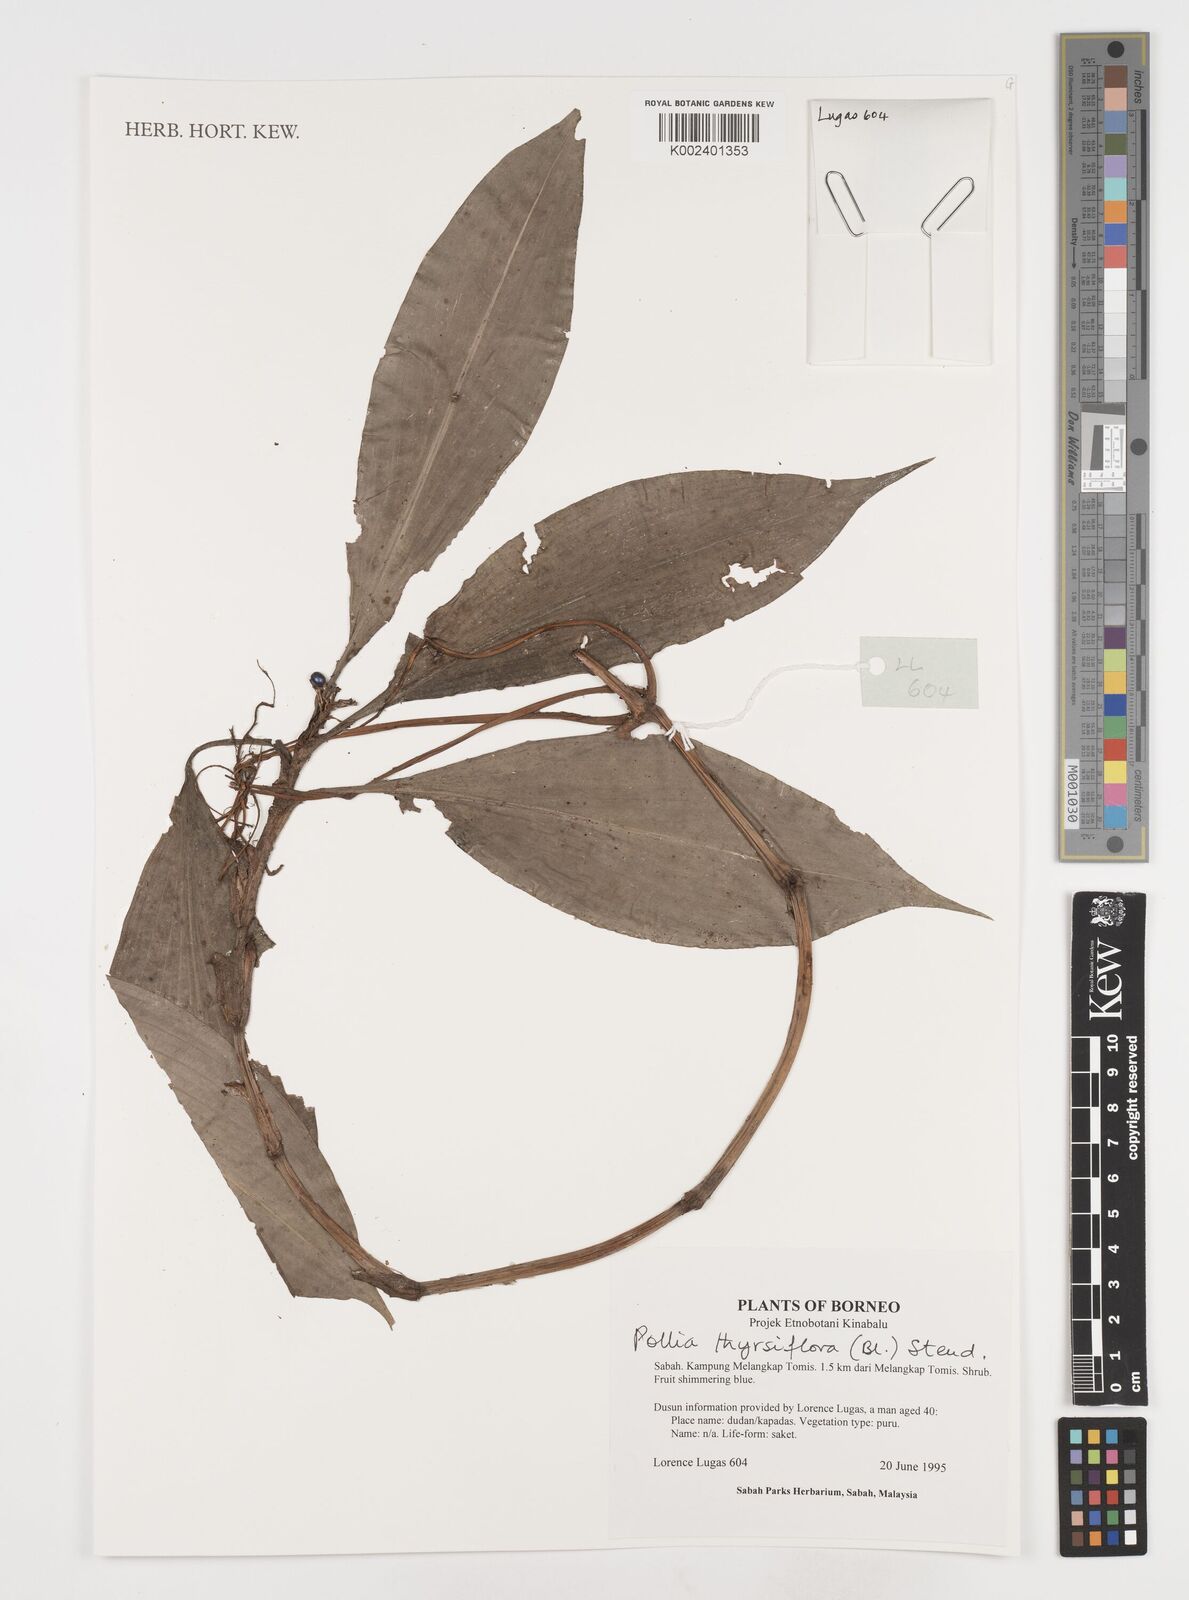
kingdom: Plantae
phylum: Tracheophyta
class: Liliopsida
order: Commelinales
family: Commelinaceae
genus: Pollia
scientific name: Pollia thyrsiflora
